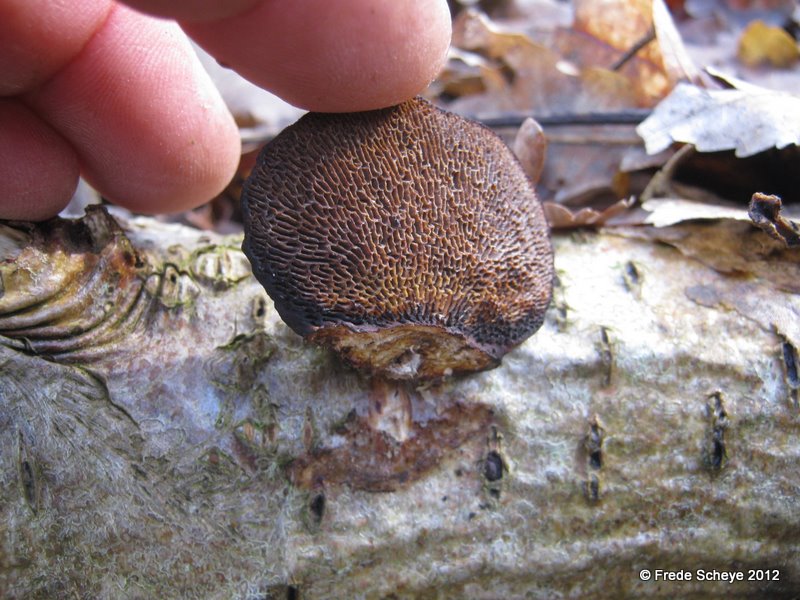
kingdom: Fungi
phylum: Basidiomycota
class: Agaricomycetes
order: Polyporales
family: Polyporaceae
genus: Daedaleopsis
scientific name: Daedaleopsis confragosa
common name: rødmende læderporesvamp
